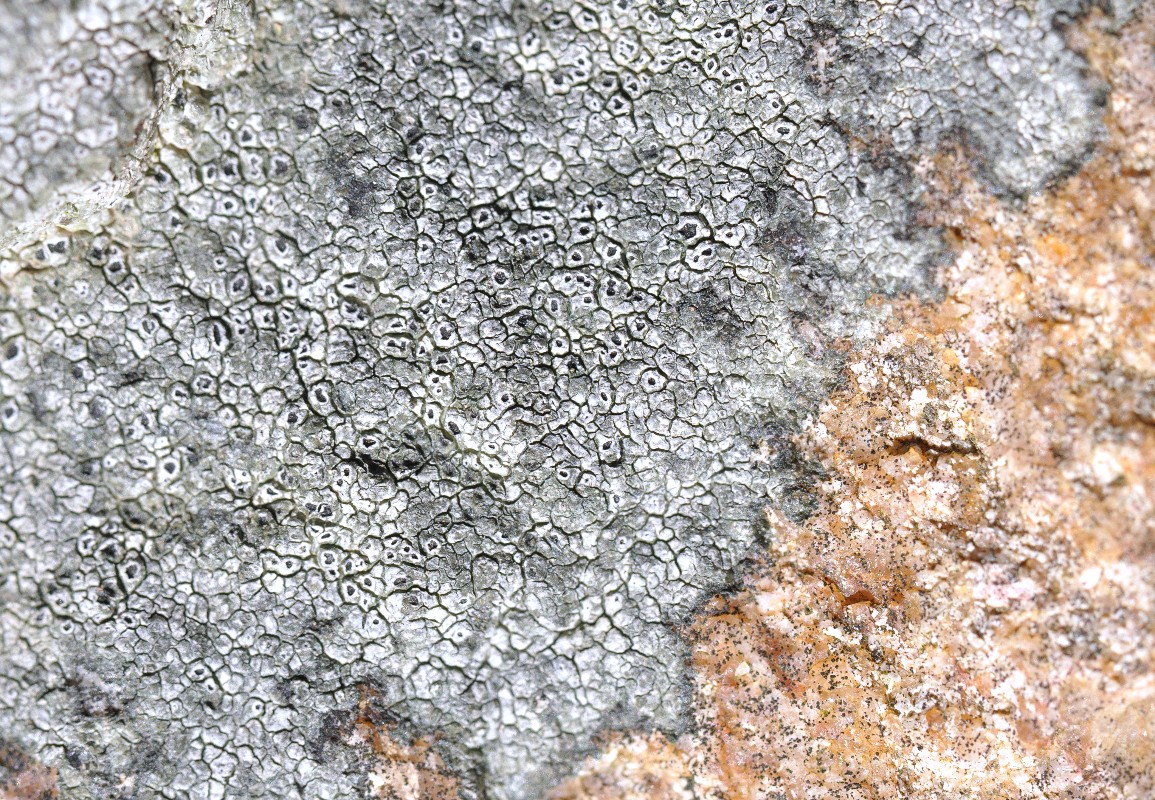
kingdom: Fungi
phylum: Ascomycota
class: Lecanoromycetes
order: Pertusariales
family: Megasporaceae
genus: Circinaria
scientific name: Circinaria caesiocinerea
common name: fuglestens-hulskivelav
